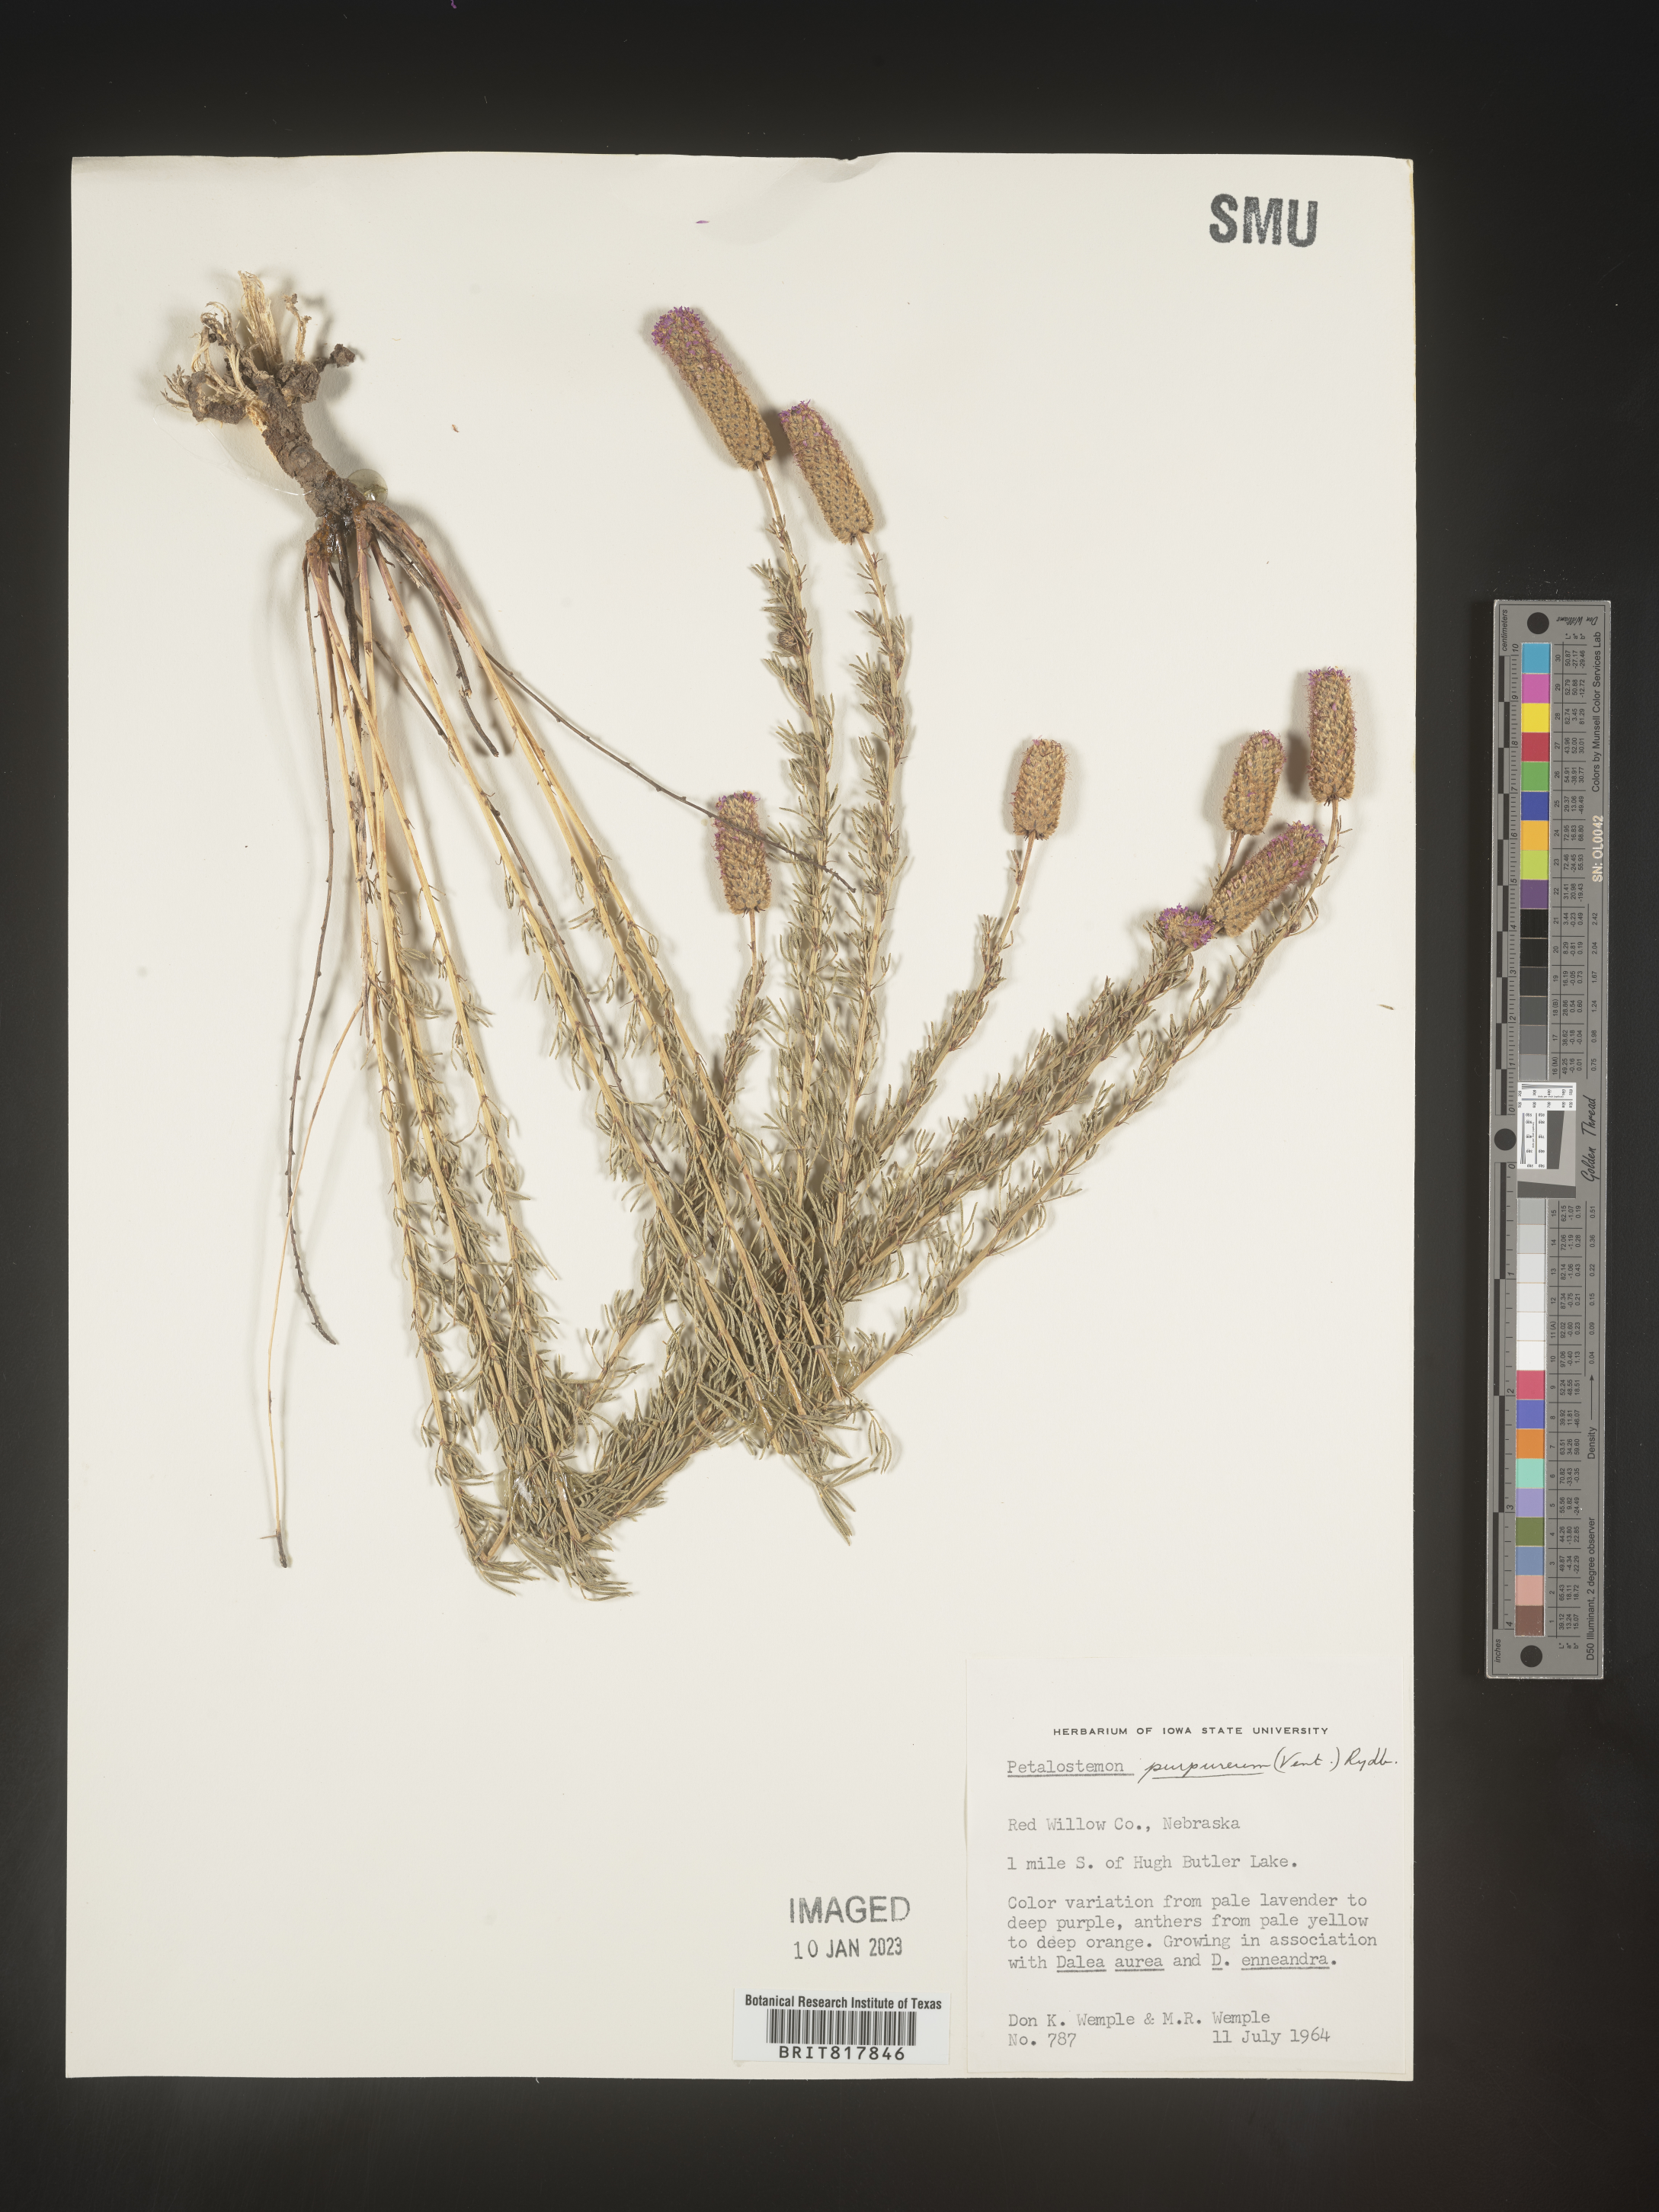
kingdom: Plantae
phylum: Tracheophyta
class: Magnoliopsida
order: Fabales
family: Fabaceae
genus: Dalea
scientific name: Dalea purpurea
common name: Purple prairie-clover
